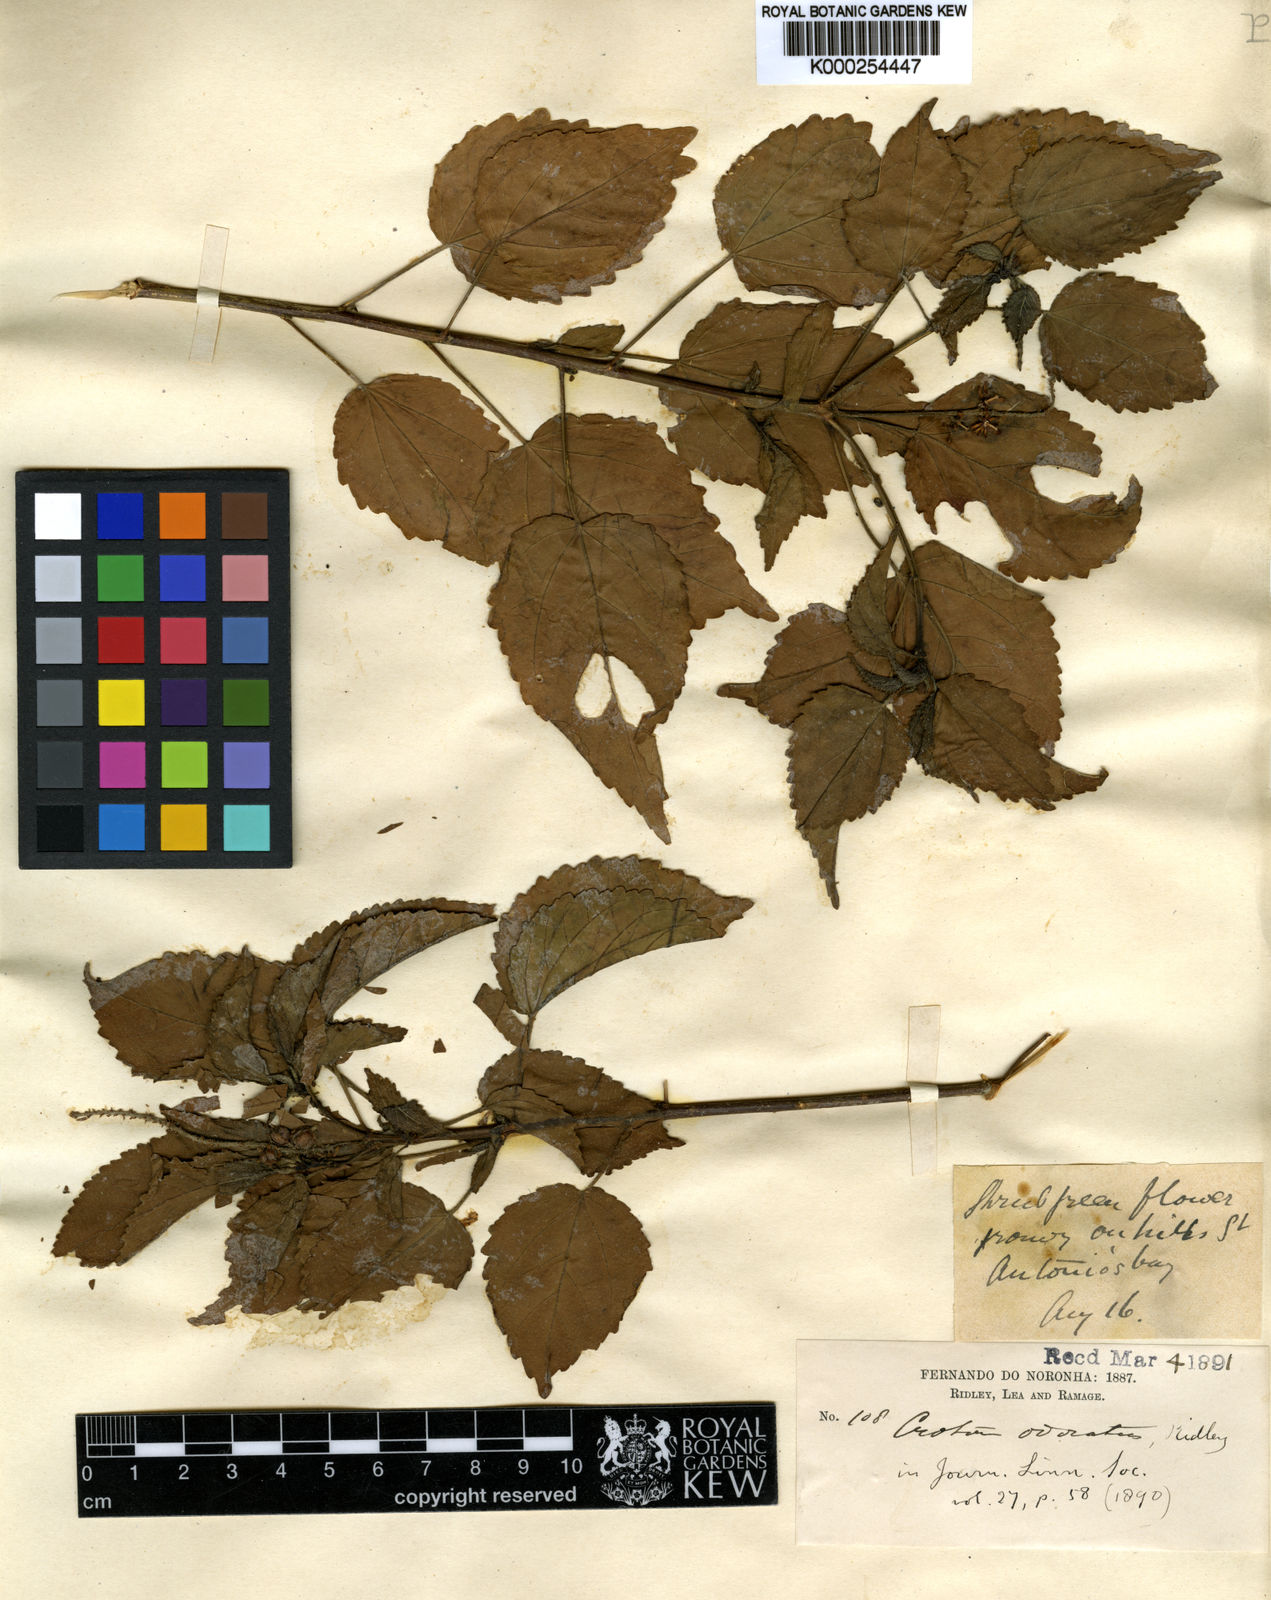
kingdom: Plantae
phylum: Tracheophyta
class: Magnoliopsida
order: Malpighiales
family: Euphorbiaceae
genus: Croton
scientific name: Croton hircinus
